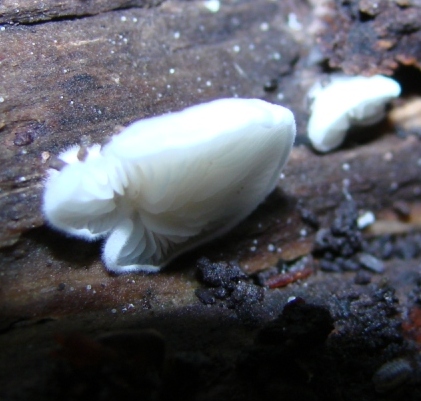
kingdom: Fungi
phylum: Basidiomycota
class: Agaricomycetes
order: Agaricales
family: Entolomataceae
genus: Clitopilus
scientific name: Clitopilus hobsonii
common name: Miller's oysterling
